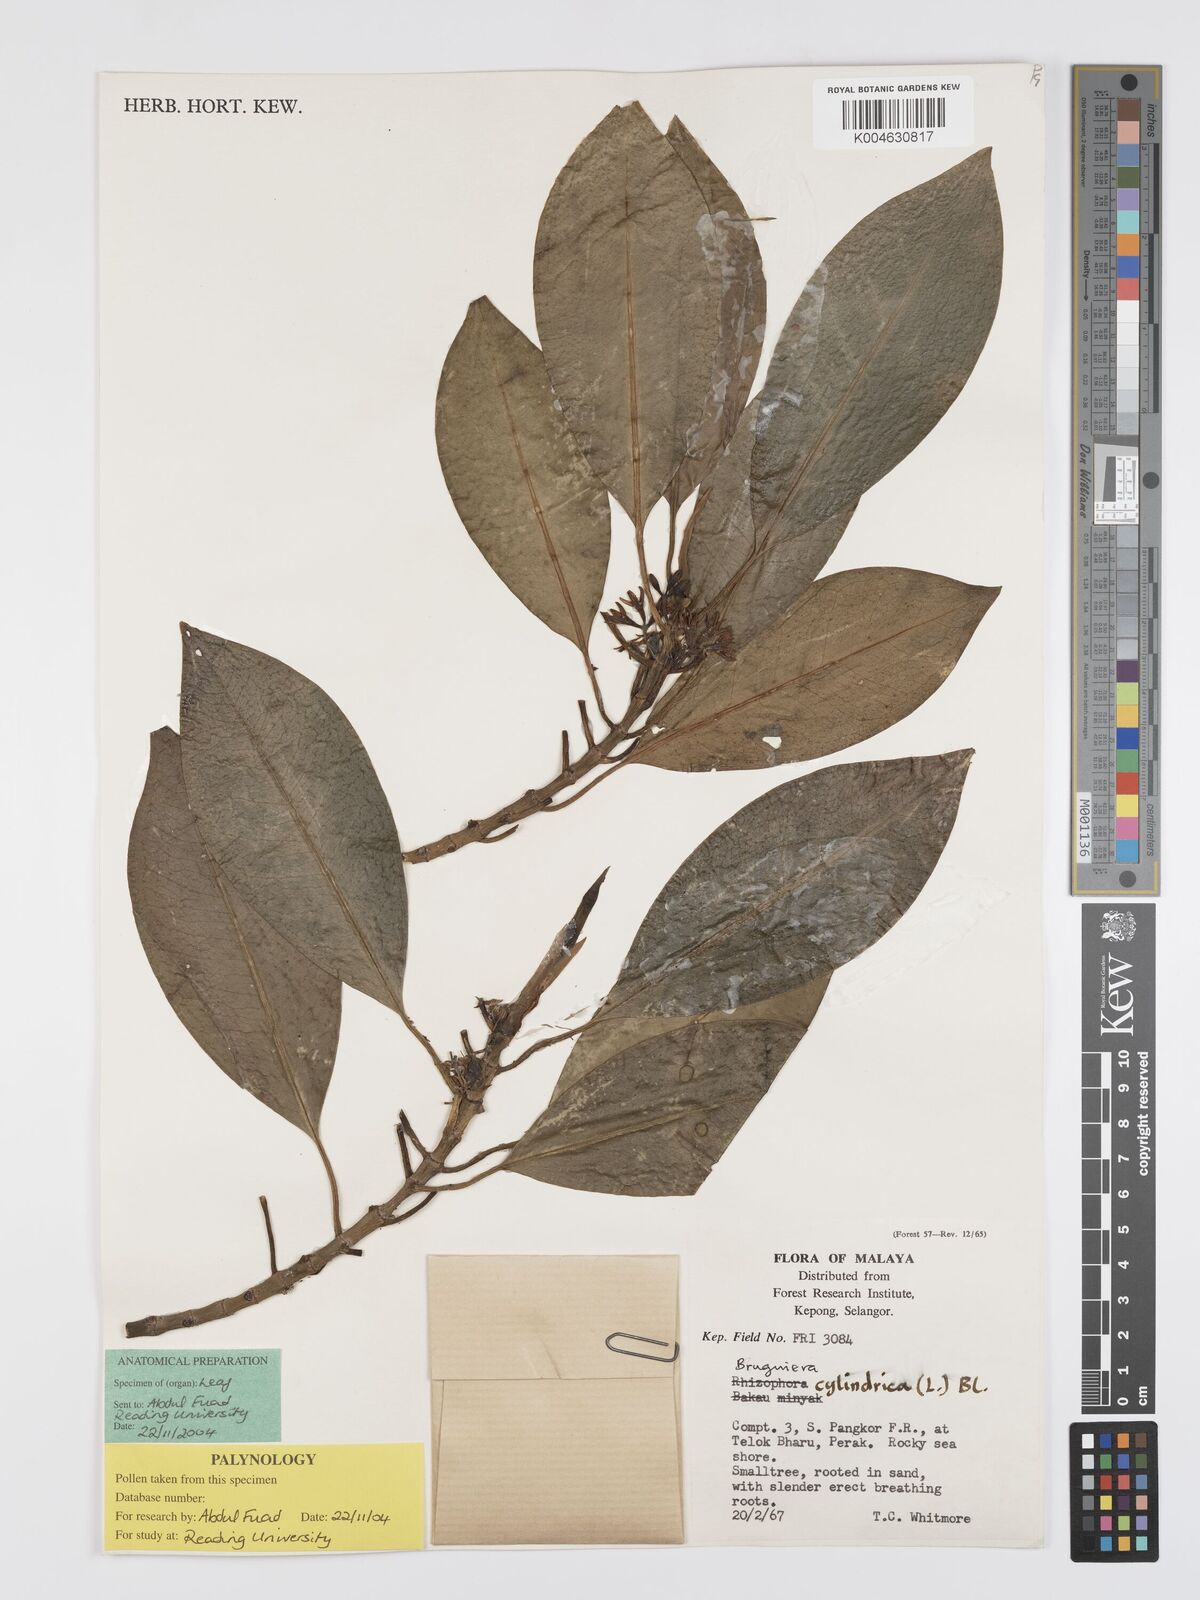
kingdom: Plantae
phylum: Tracheophyta
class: Magnoliopsida
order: Malpighiales
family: Rhizophoraceae
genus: Bruguiera
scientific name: Bruguiera cylindrica
